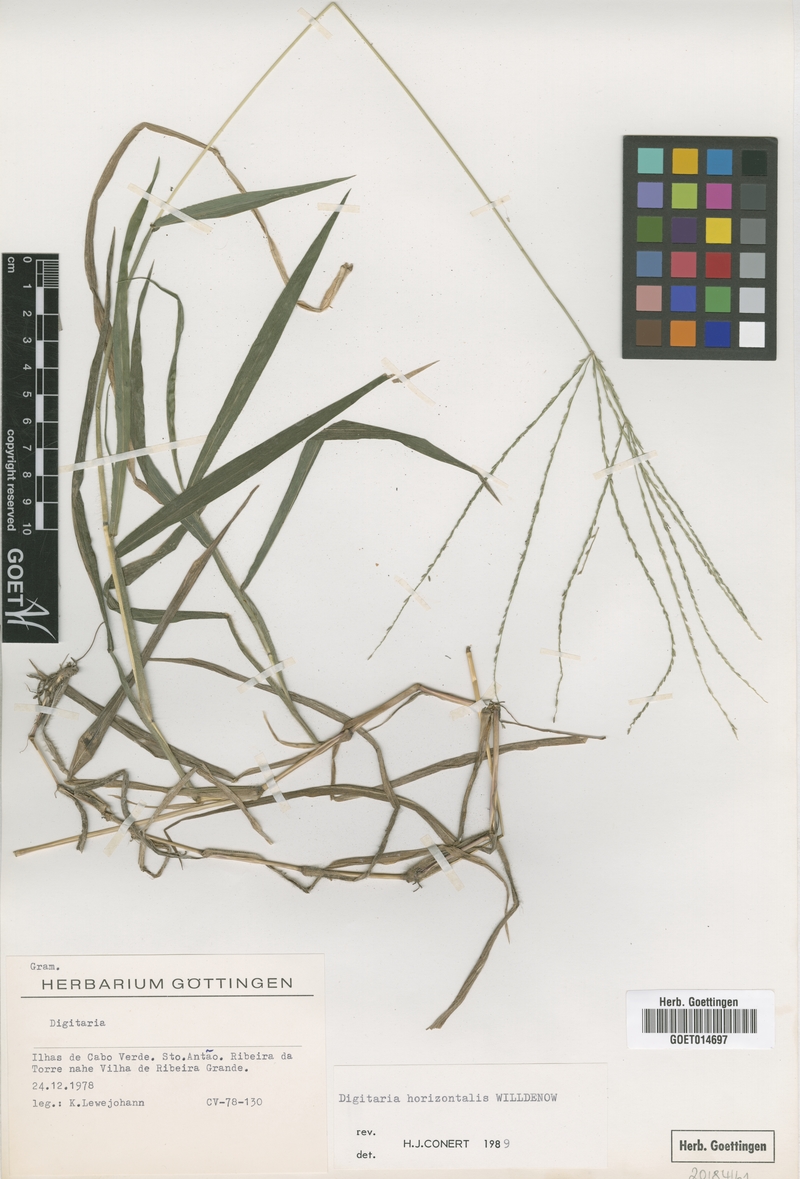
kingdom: Plantae
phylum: Tracheophyta
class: Liliopsida
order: Poales
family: Poaceae
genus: Digitaria
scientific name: Digitaria horizontalis
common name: Jamaican crabgrass
